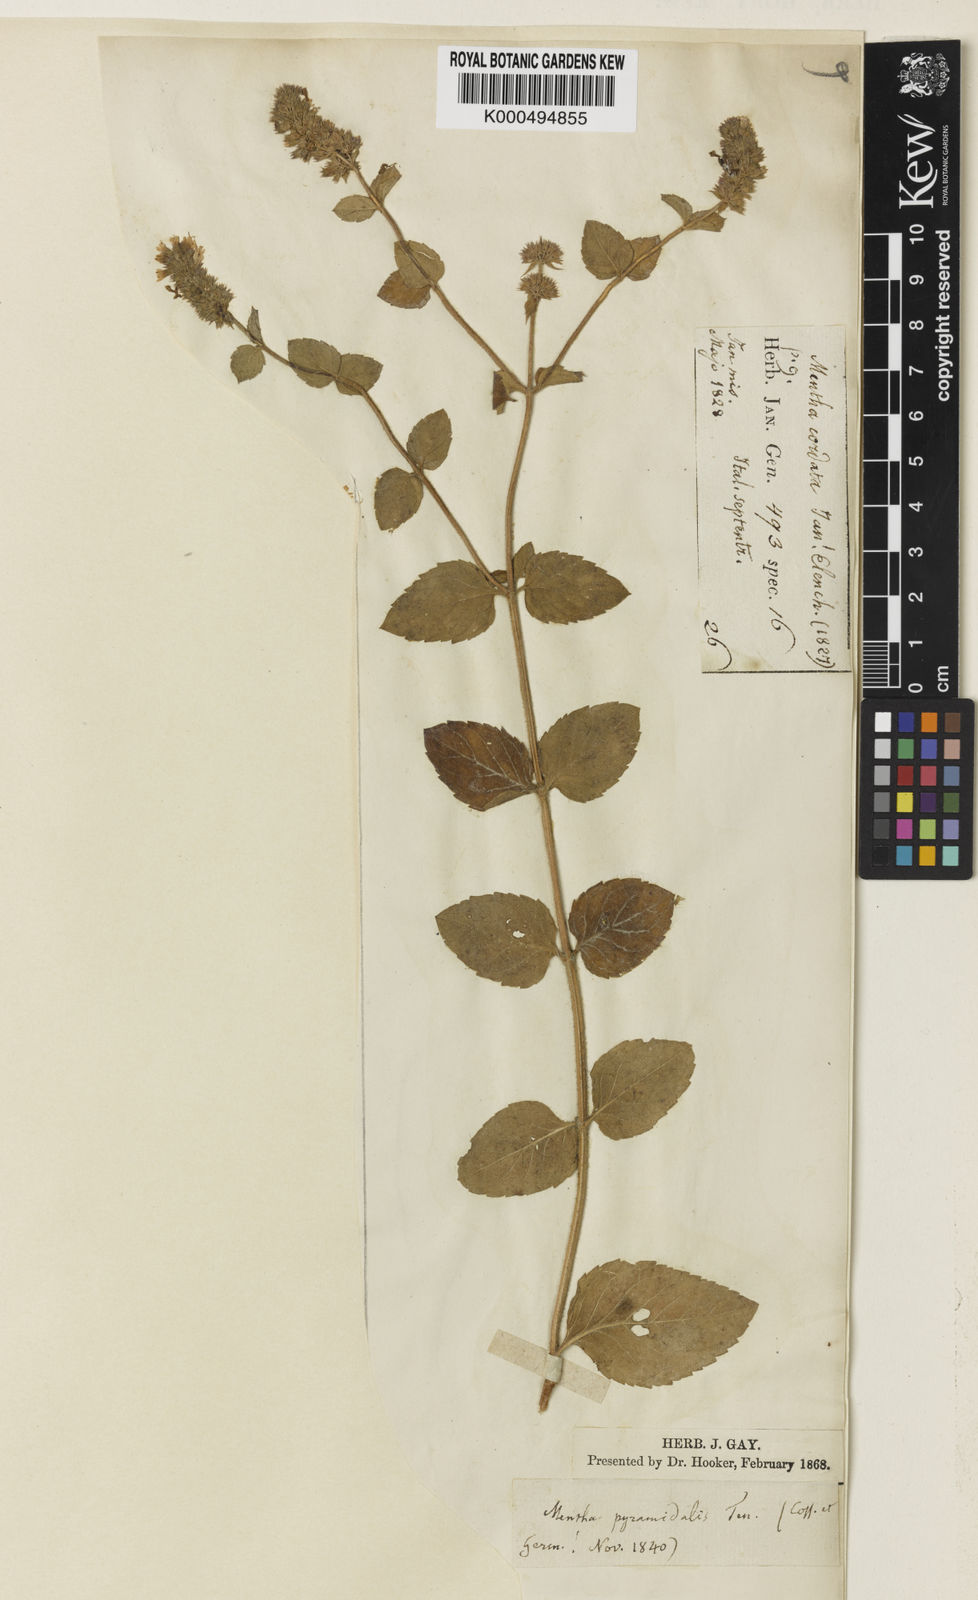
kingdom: Plantae
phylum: Tracheophyta
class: Magnoliopsida
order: Lamiales
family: Lamiaceae
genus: Mentha
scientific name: Mentha pyramidalis
